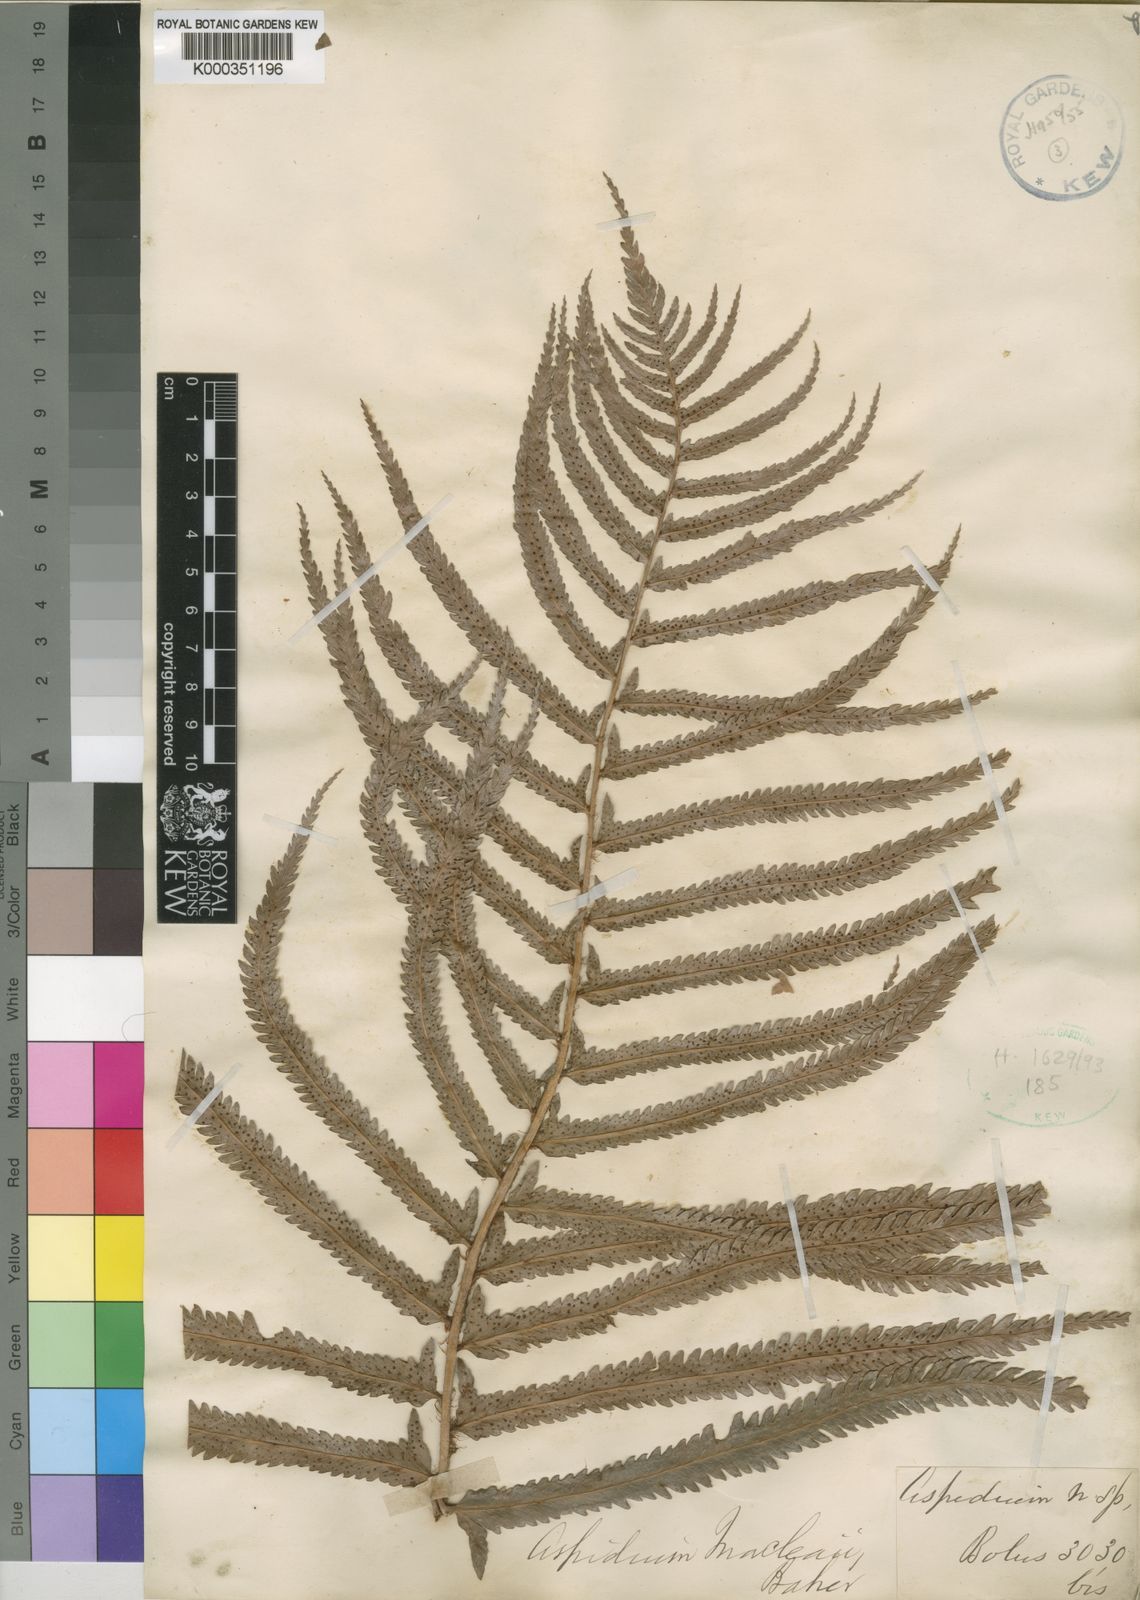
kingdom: Plantae
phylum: Tracheophyta
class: Polypodiopsida
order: Polypodiales
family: Dryopteridaceae
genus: Polystichum
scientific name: Polystichum
